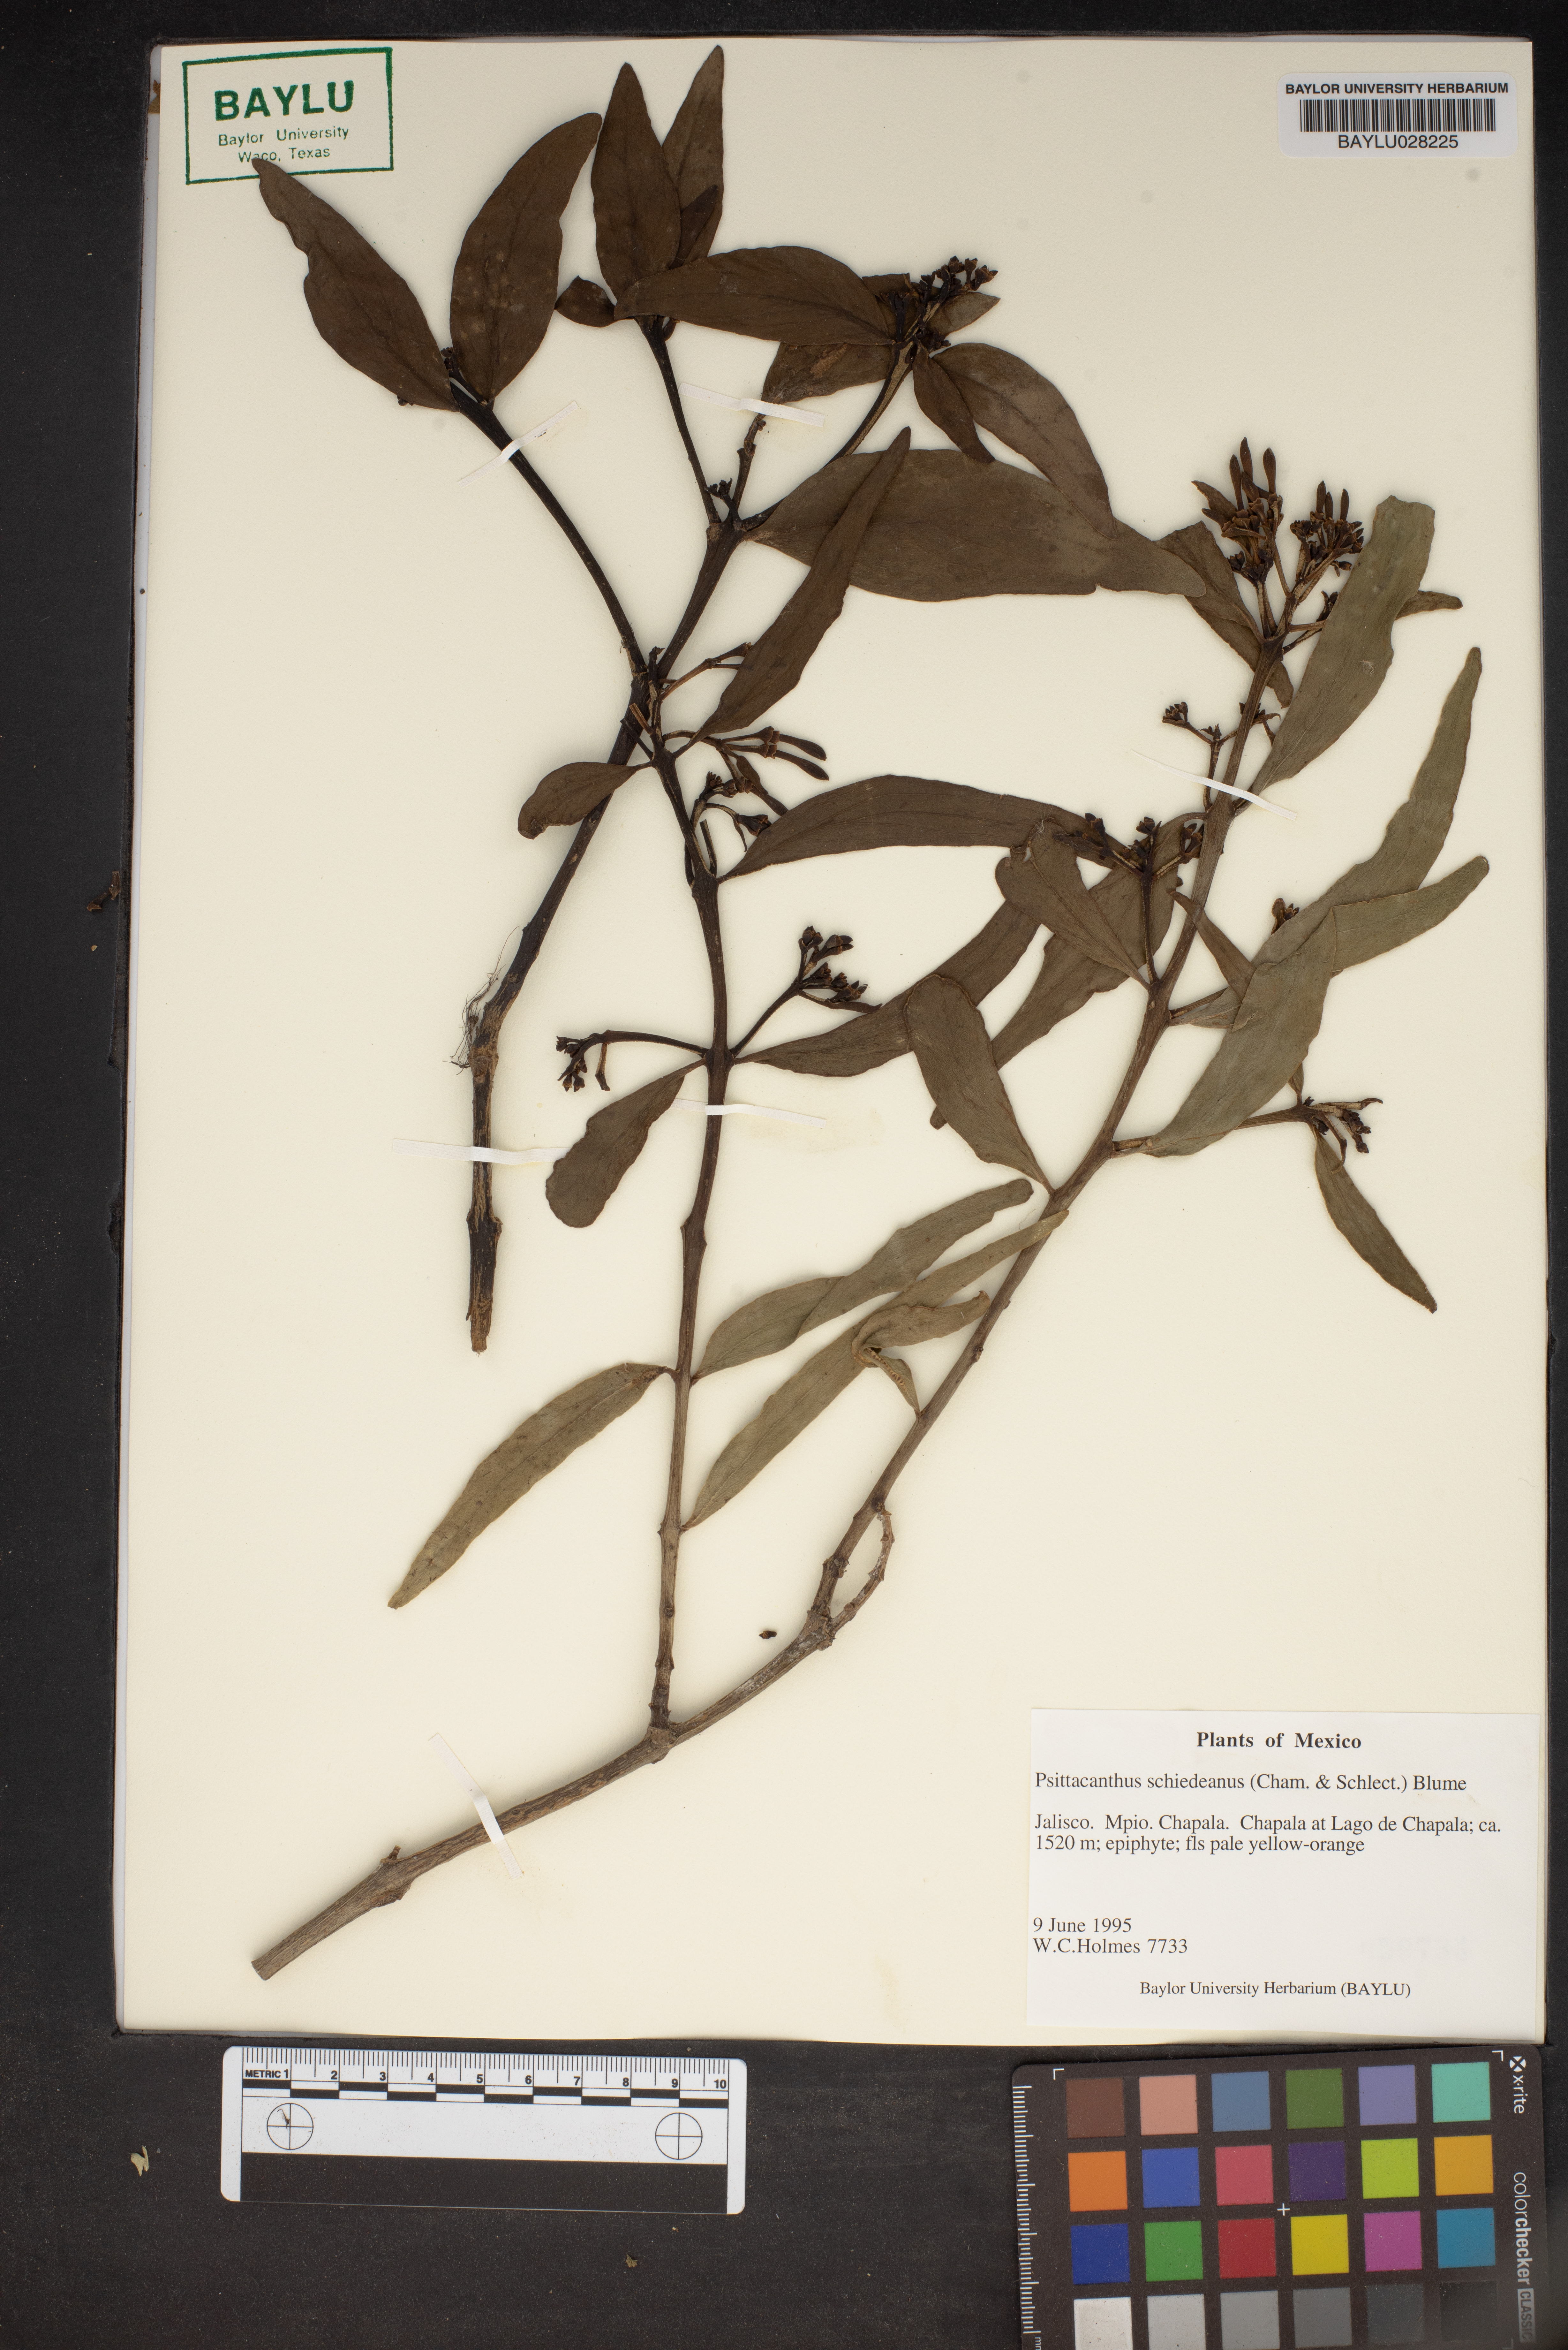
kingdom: Plantae
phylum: Tracheophyta
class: Magnoliopsida
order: Santalales
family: Loranthaceae
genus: Psittacanthus
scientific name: Psittacanthus schiedeanus
